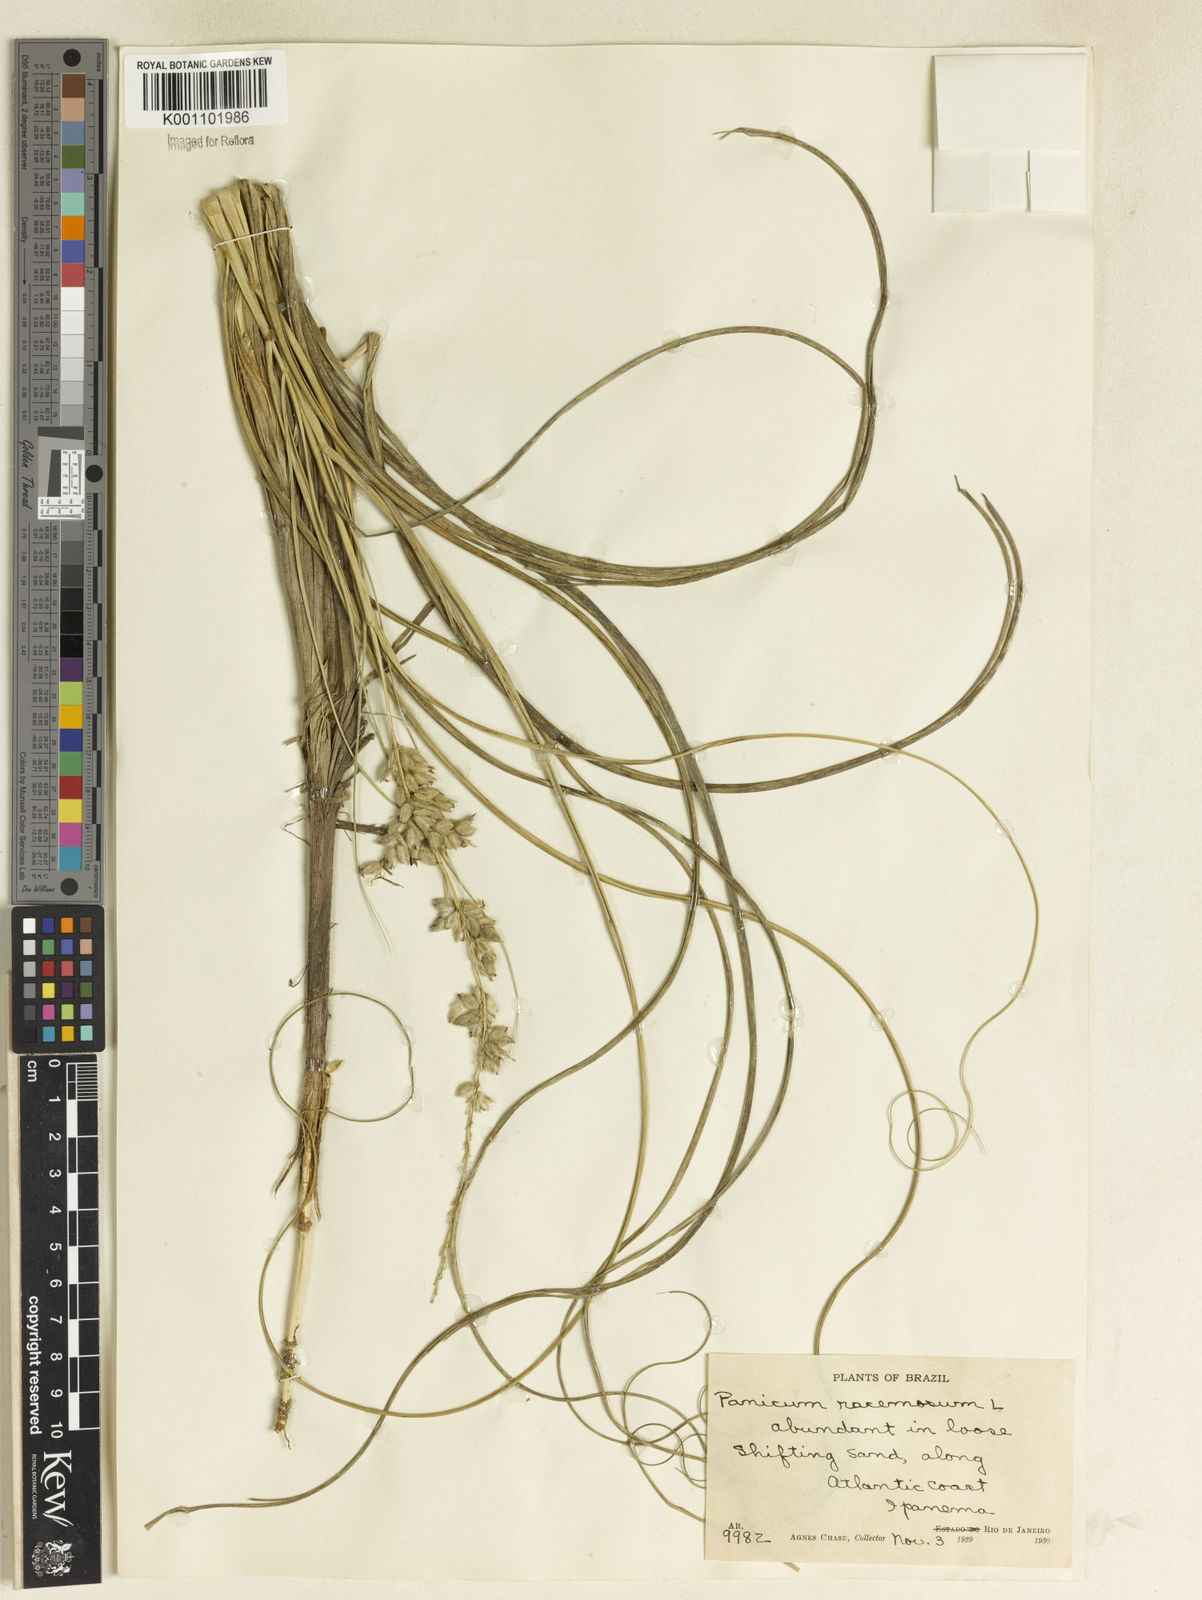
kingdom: Plantae
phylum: Tracheophyta
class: Liliopsida
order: Poales
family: Poaceae
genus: Panicum
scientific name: Panicum racemosum
